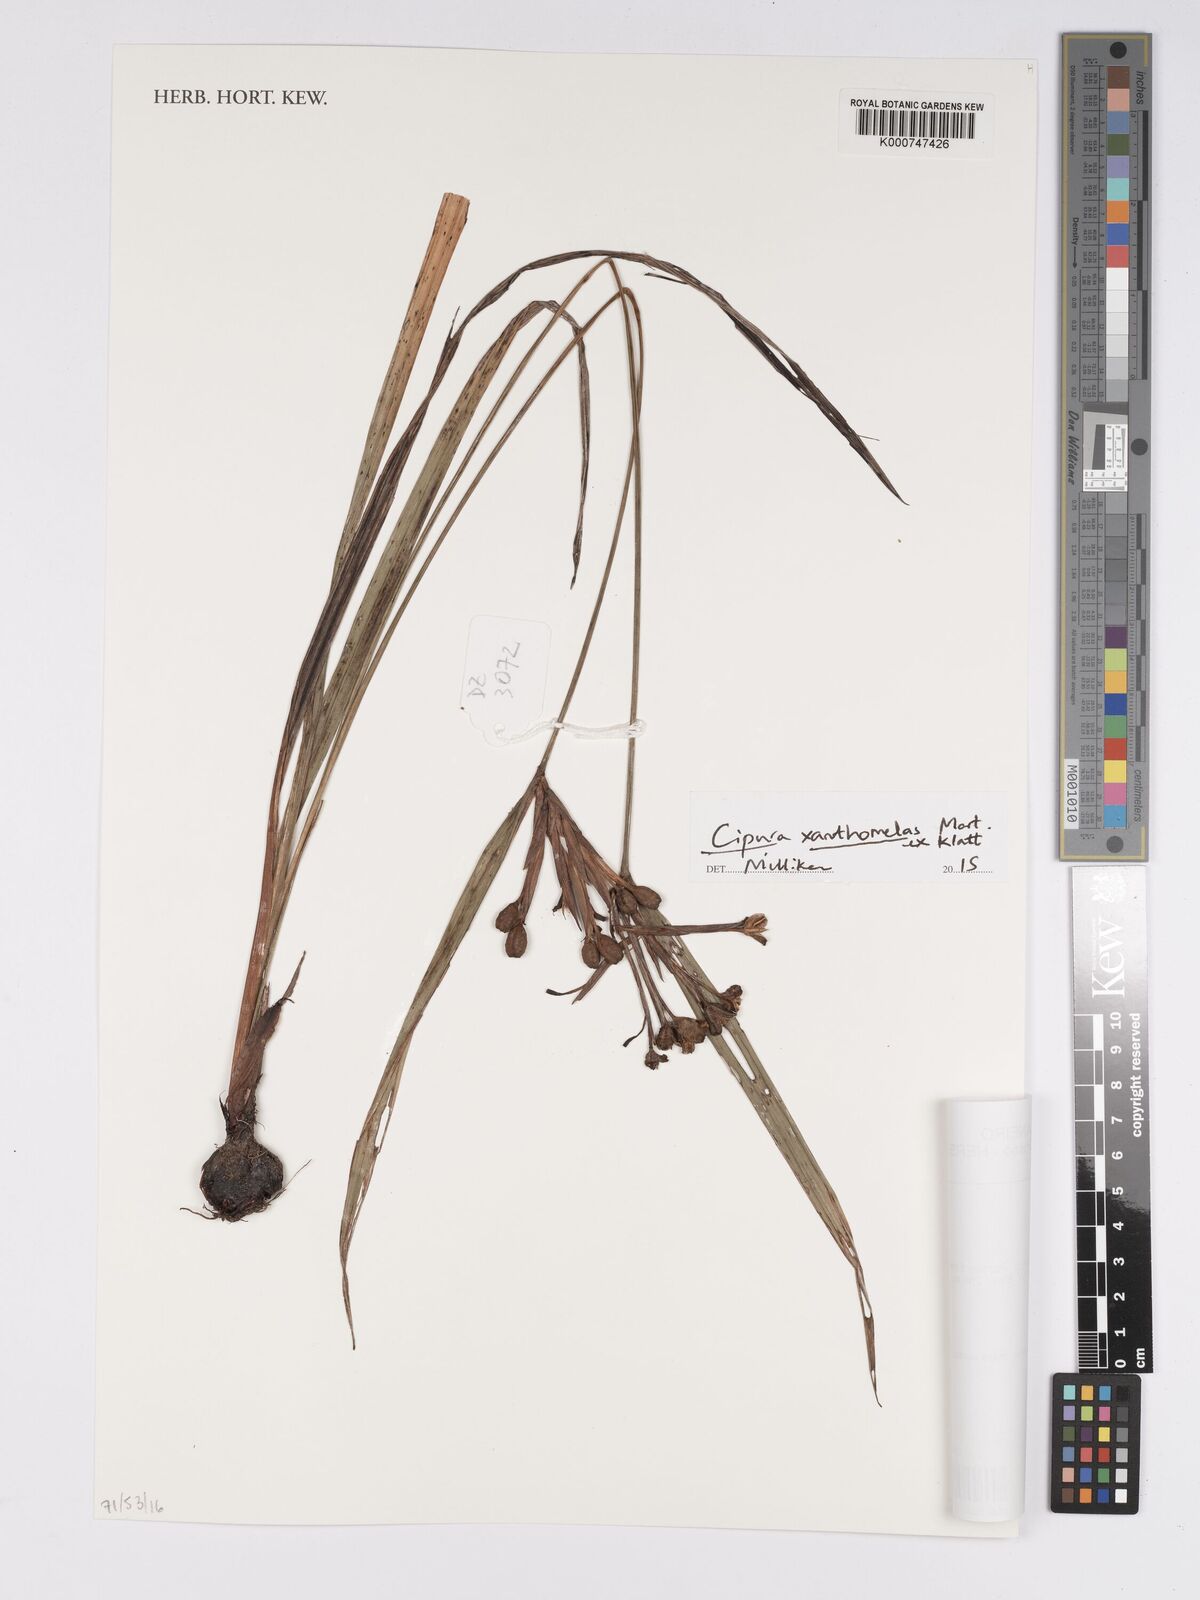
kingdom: Plantae
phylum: Tracheophyta
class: Liliopsida
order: Asparagales
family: Iridaceae
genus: Cipura
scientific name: Cipura xanthomelas
